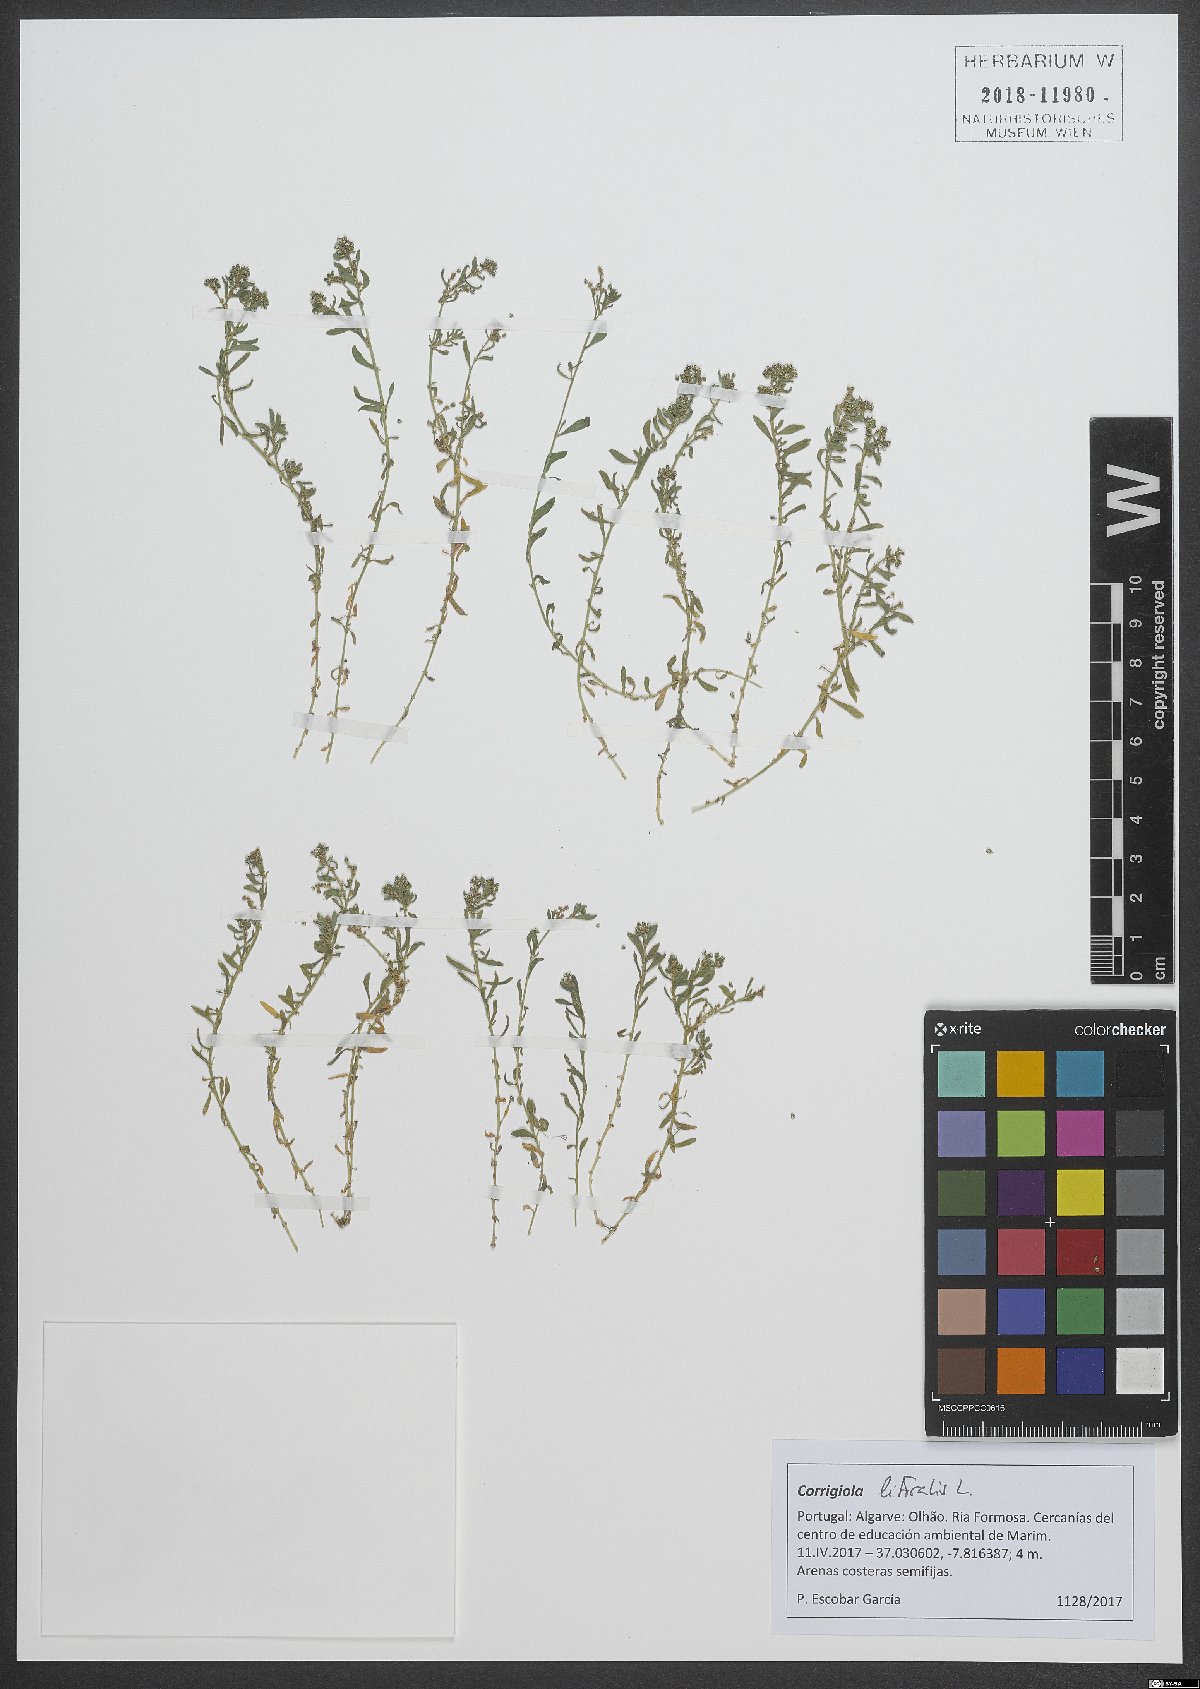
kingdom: Plantae
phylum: Tracheophyta
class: Magnoliopsida
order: Caryophyllales
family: Caryophyllaceae
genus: Corrigiola
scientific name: Corrigiola litoralis
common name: Strapwort
